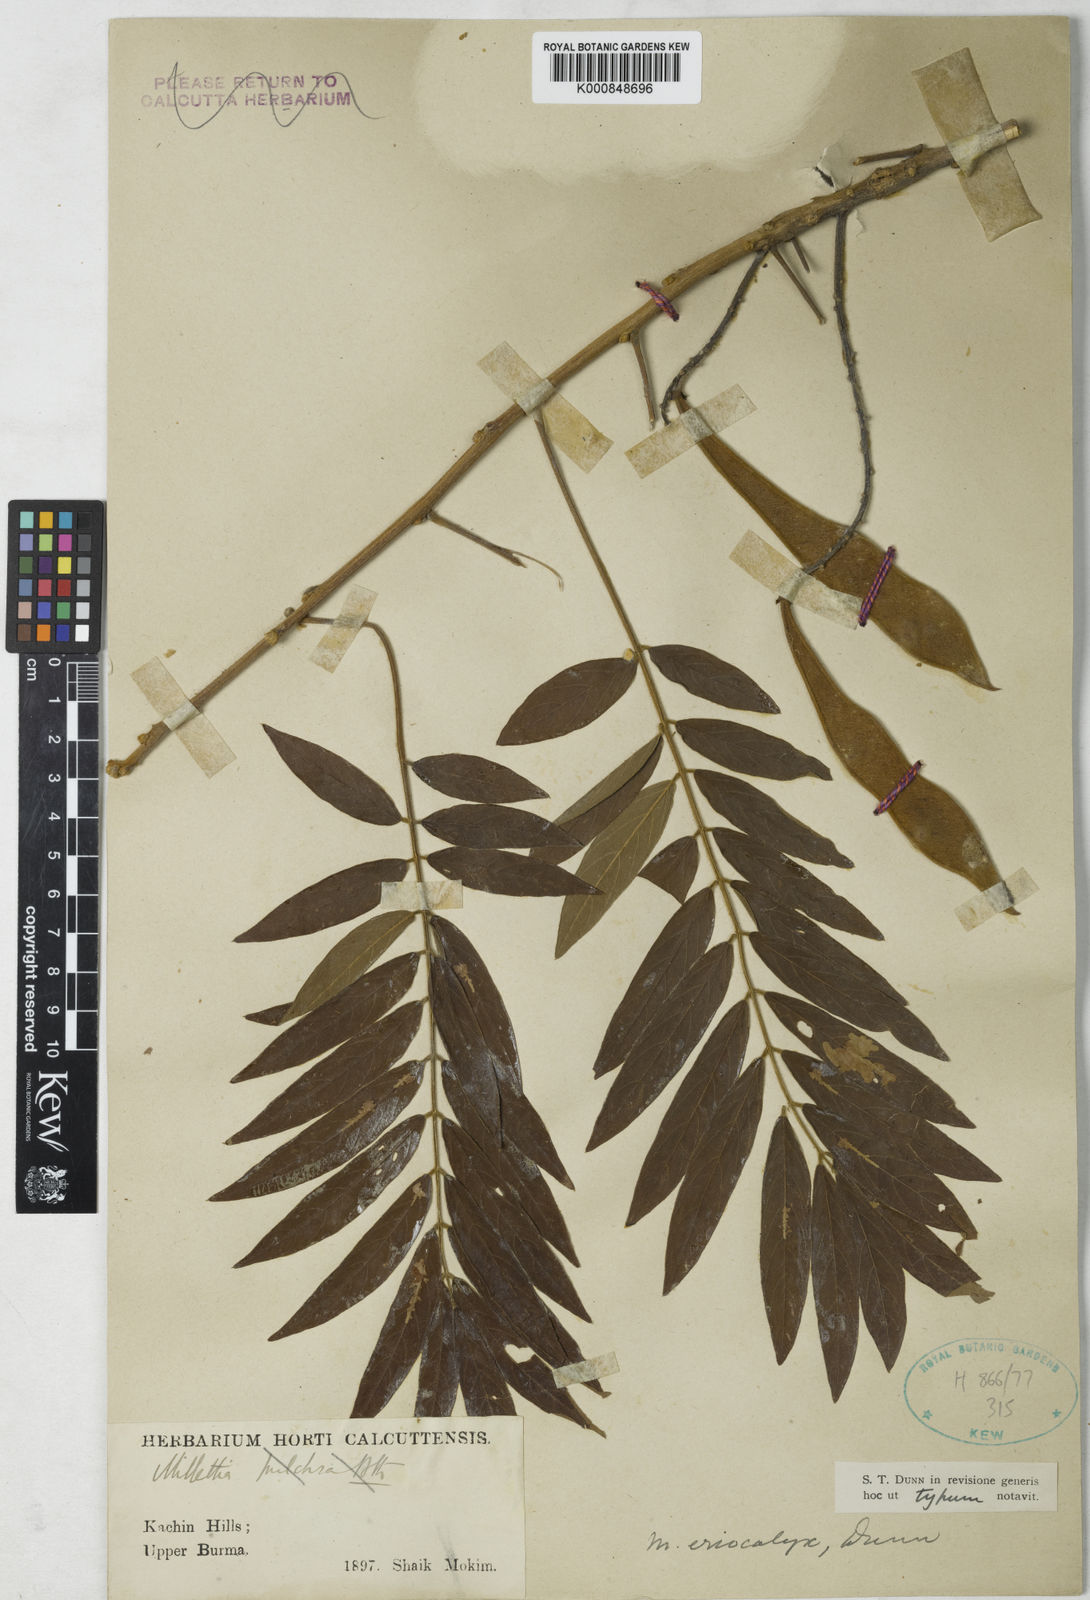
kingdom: Plantae
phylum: Tracheophyta
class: Magnoliopsida
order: Fabales
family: Fabaceae
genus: Millettia
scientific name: Millettia pulchra
